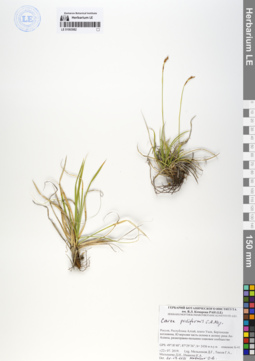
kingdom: Plantae
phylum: Tracheophyta
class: Liliopsida
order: Poales
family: Cyperaceae
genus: Carex
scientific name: Carex pediformis
